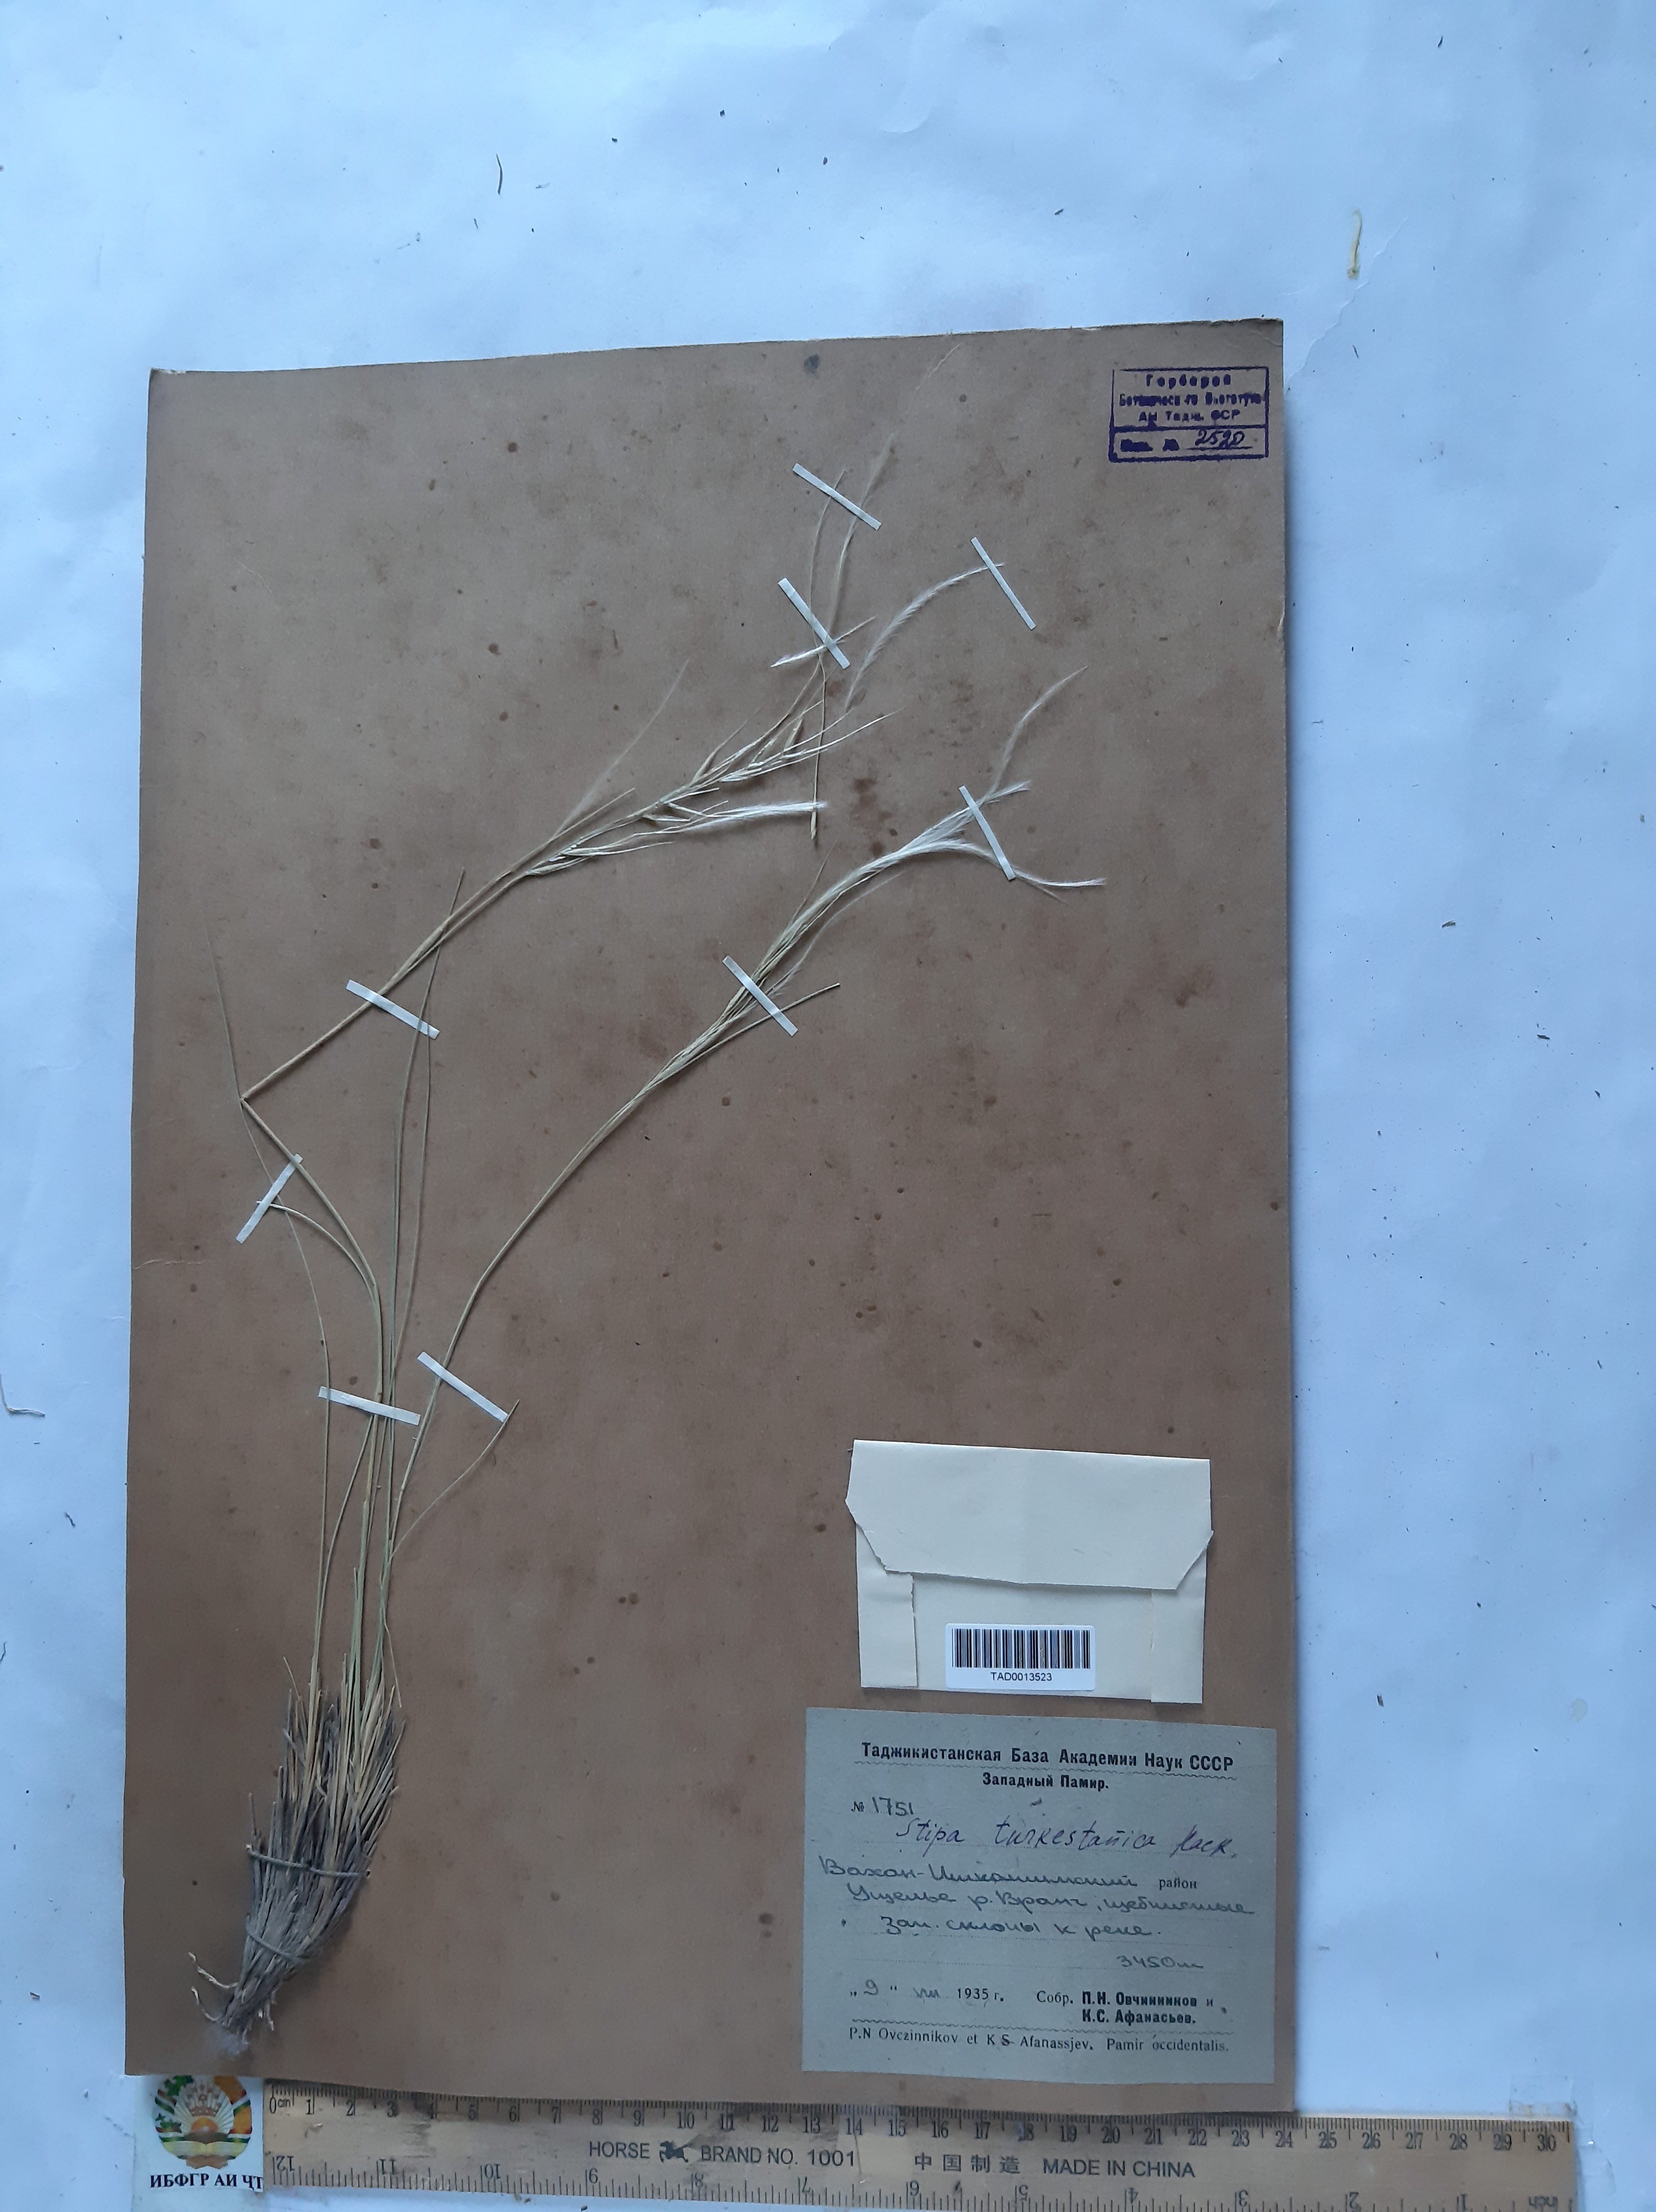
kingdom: Plantae
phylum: Tracheophyta
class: Liliopsida
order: Poales
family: Poaceae
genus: Stipa
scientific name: Stipa turkestanica
